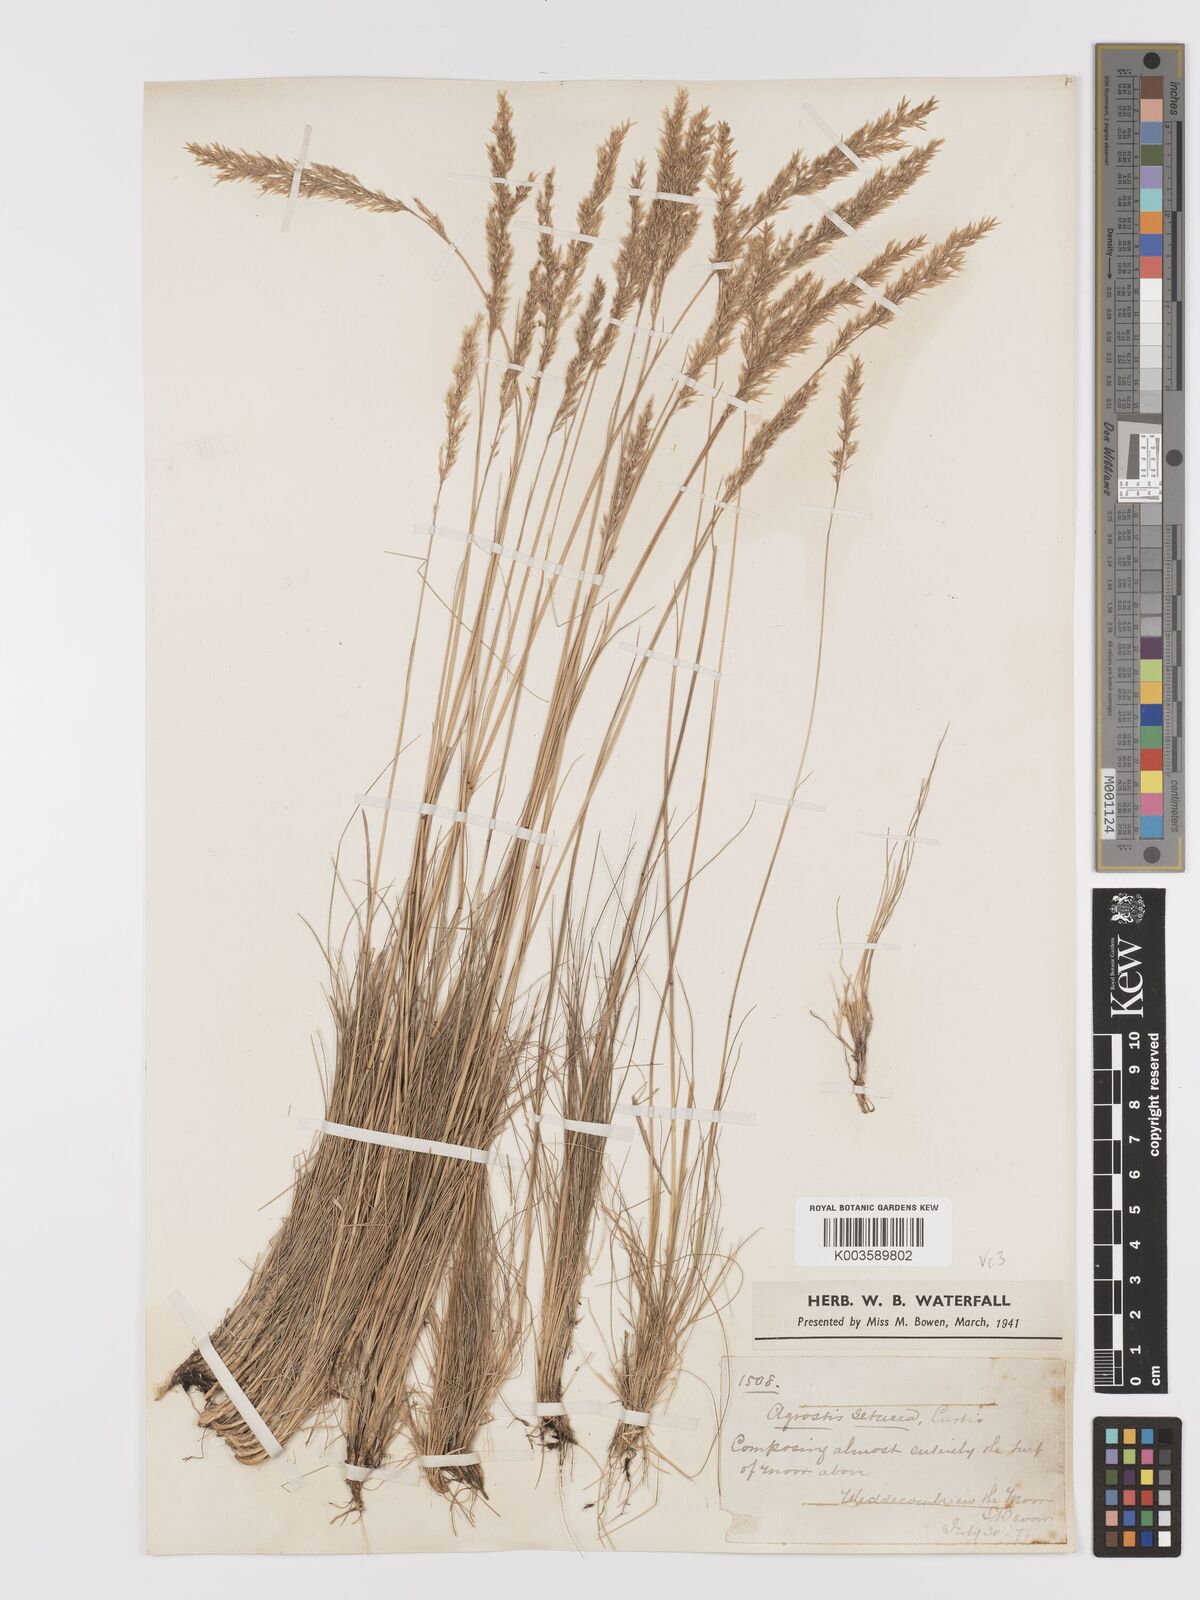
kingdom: Plantae
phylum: Tracheophyta
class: Liliopsida
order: Poales
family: Poaceae
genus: Alpagrostis
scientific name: Alpagrostis setacea
